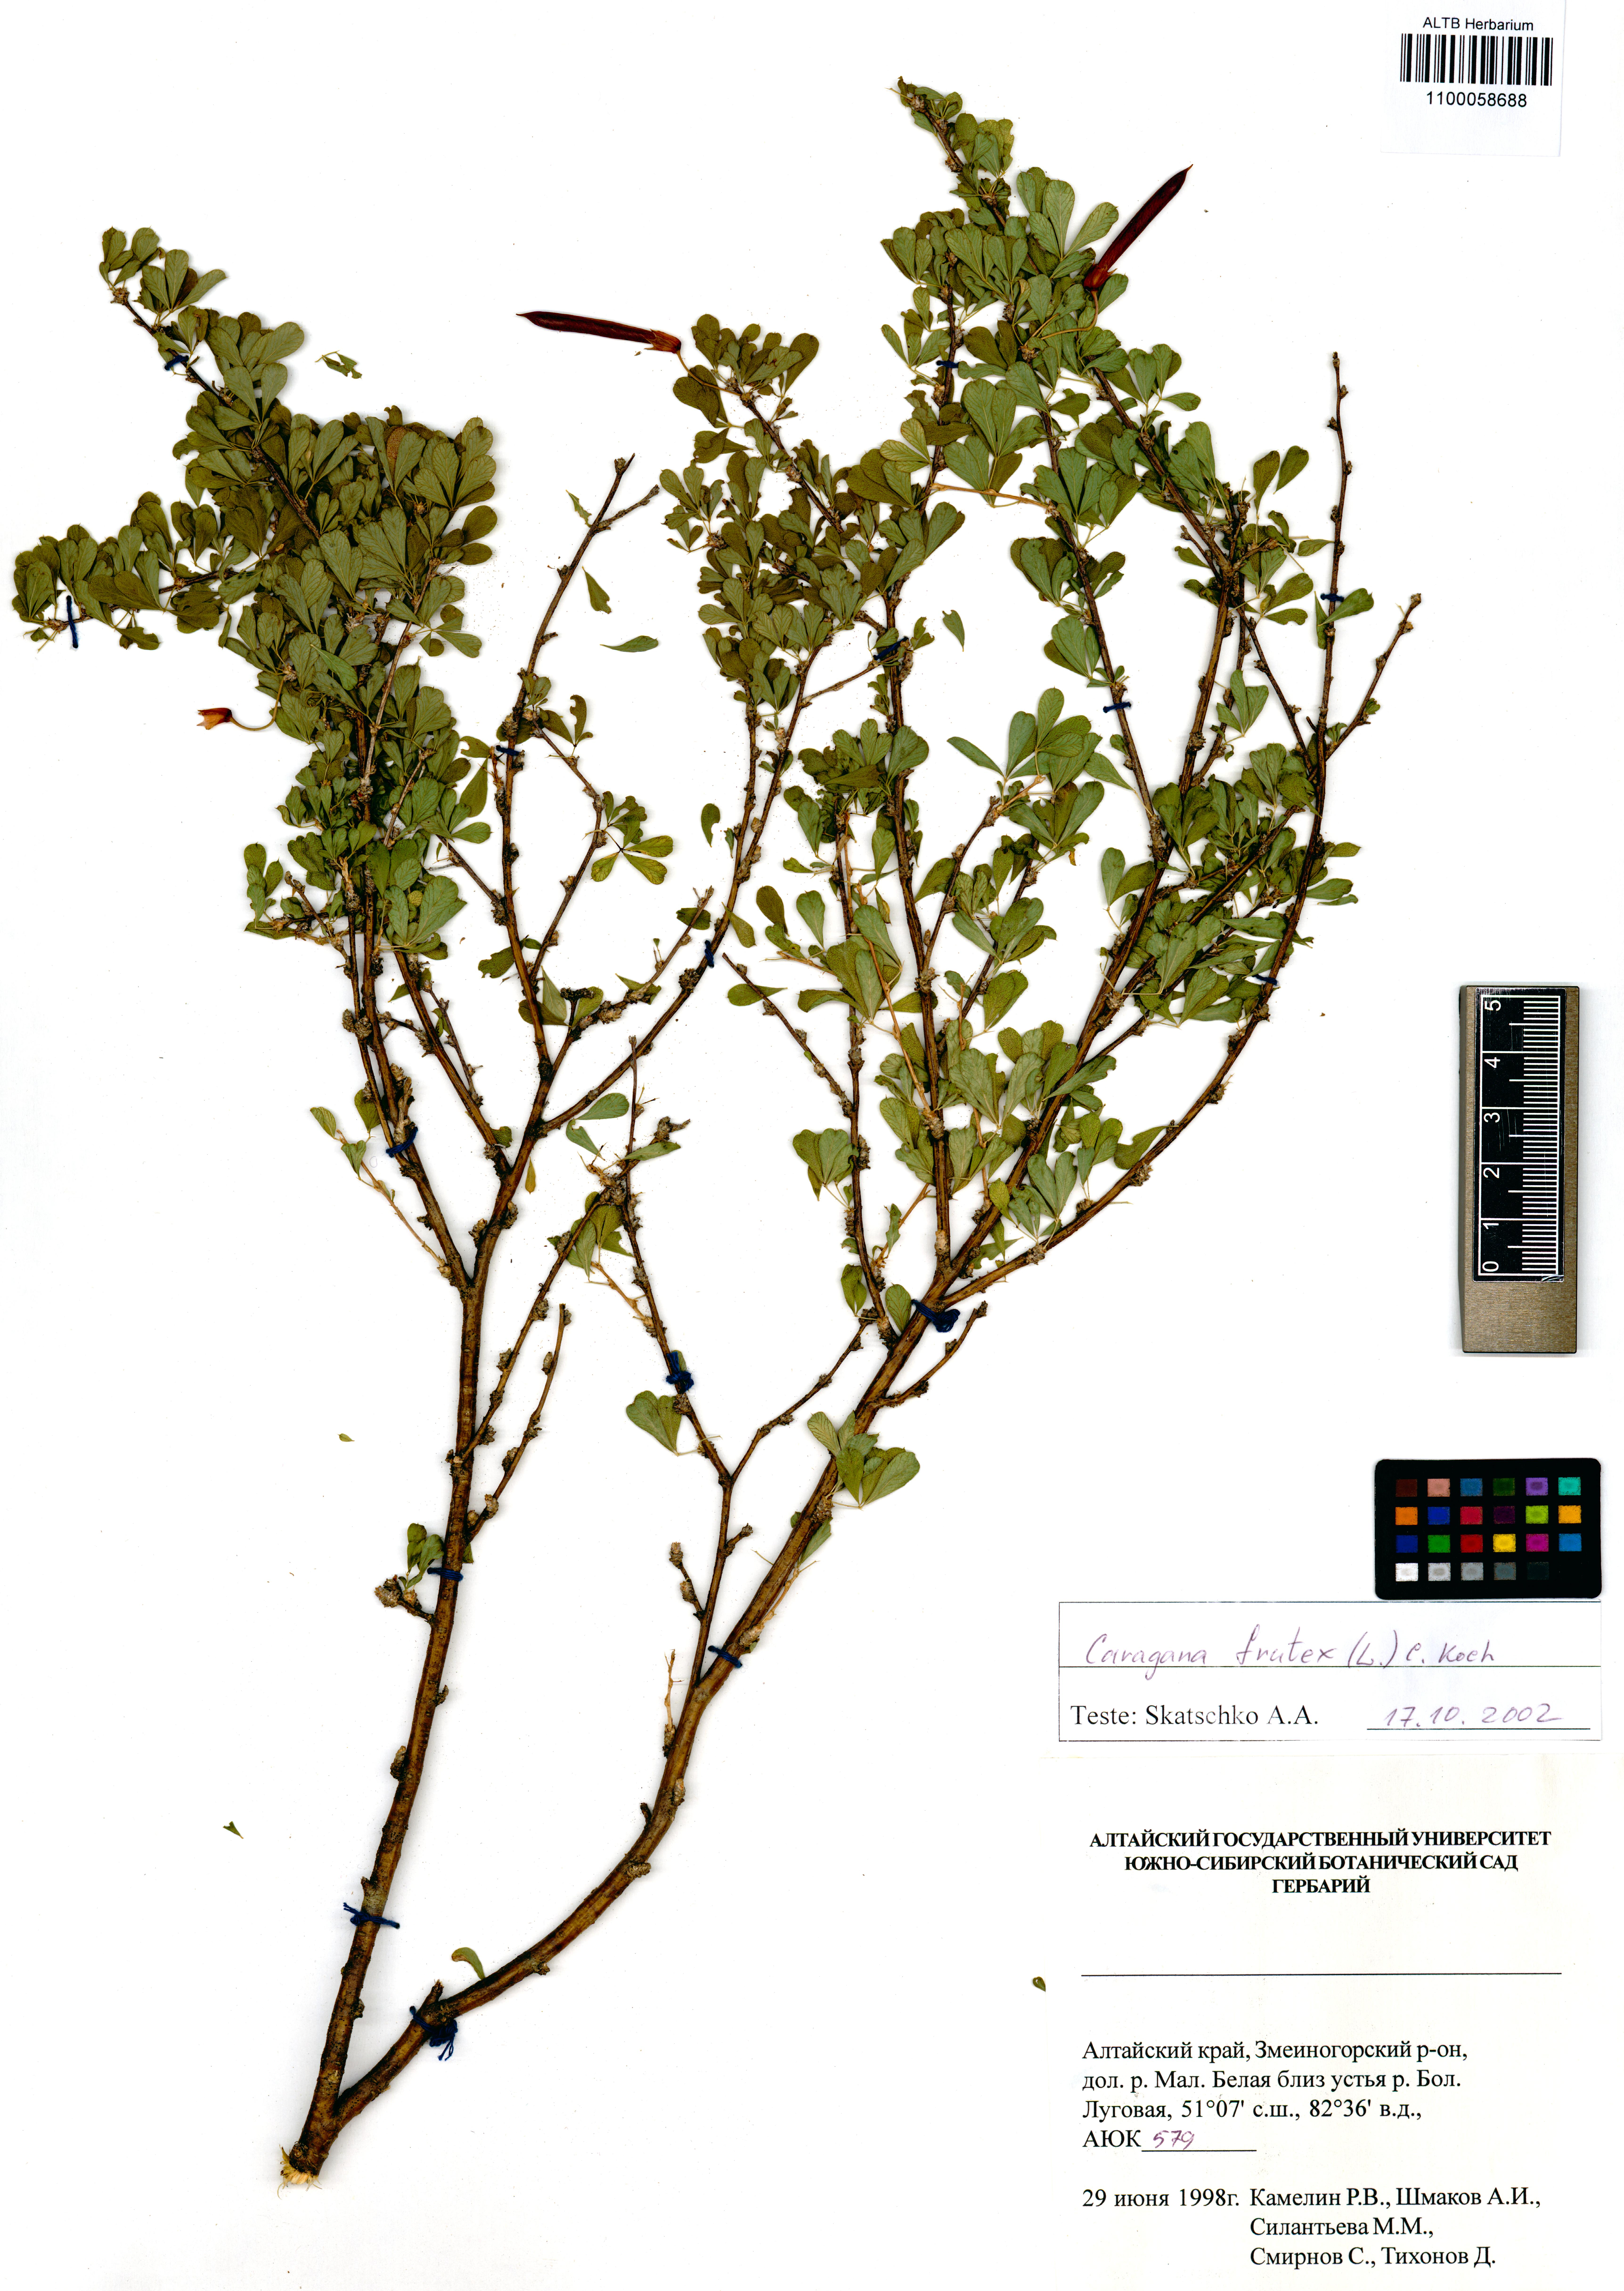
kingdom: Plantae
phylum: Tracheophyta
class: Magnoliopsida
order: Fabales
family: Fabaceae
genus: Caragana
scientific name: Caragana frutex
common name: Russian peashrub
